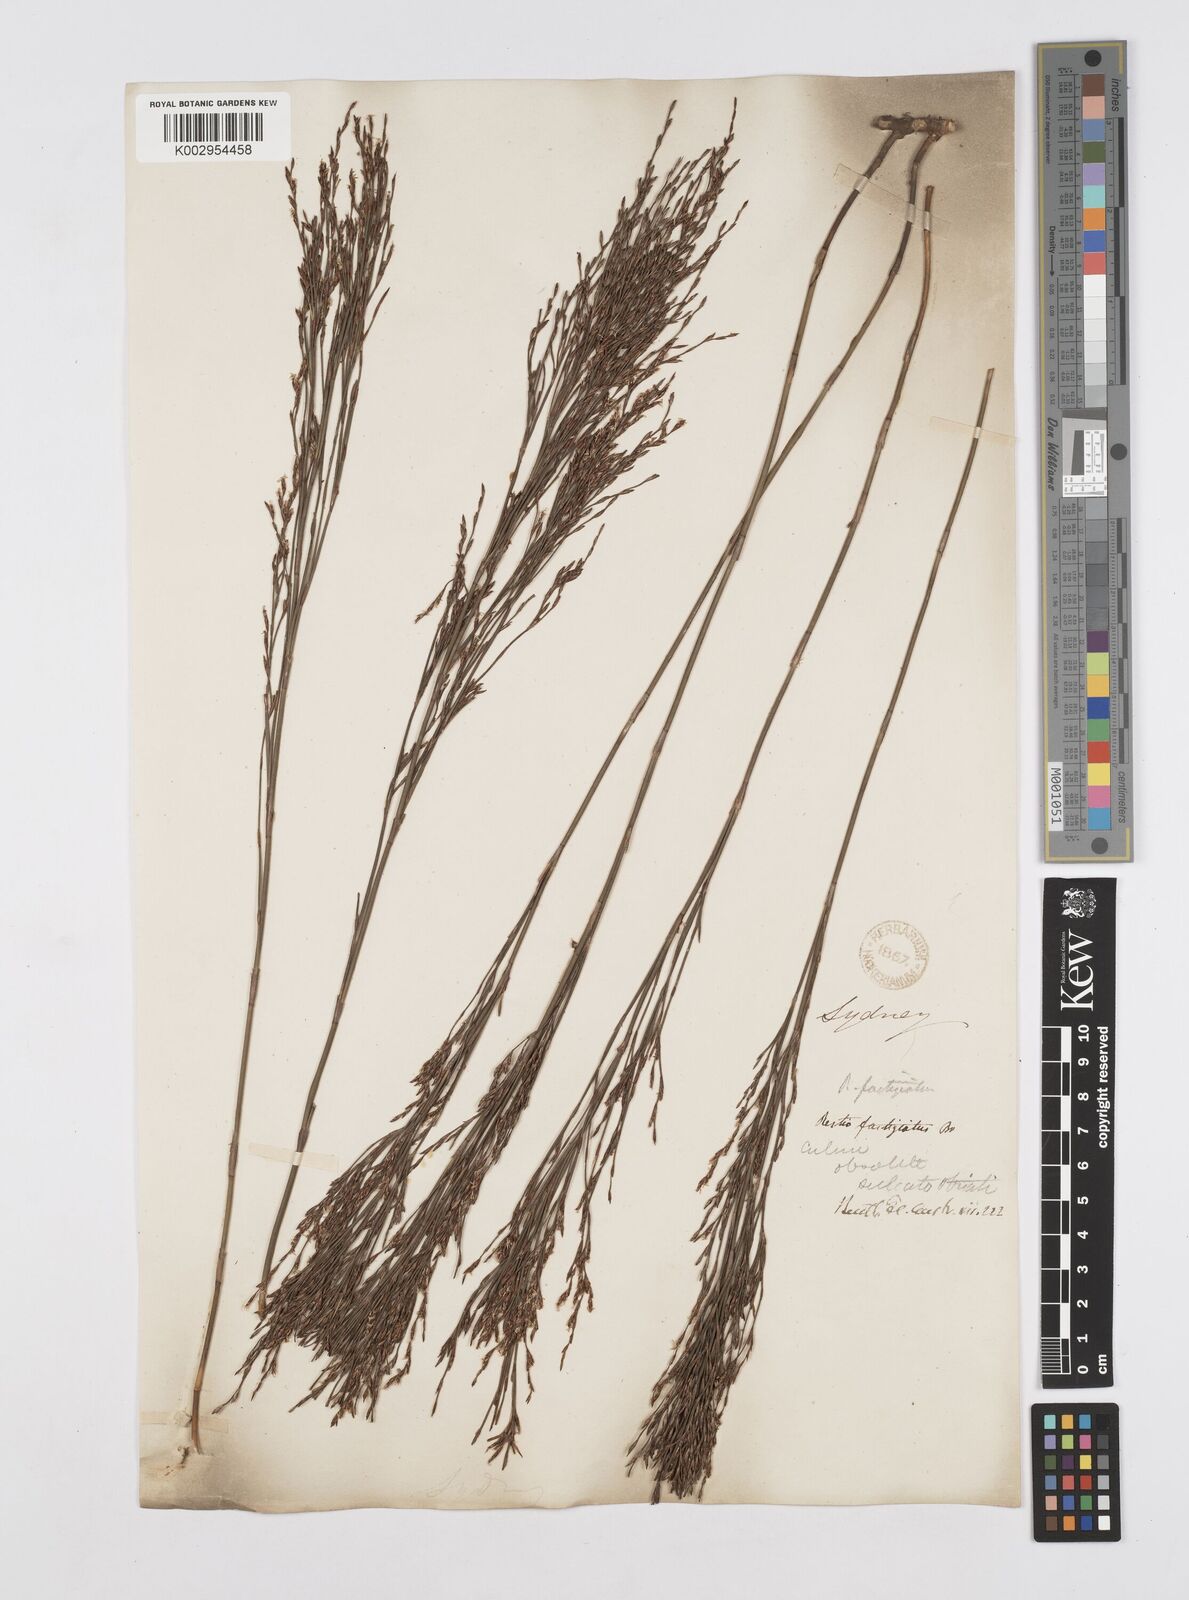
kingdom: Plantae
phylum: Tracheophyta
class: Liliopsida
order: Poales
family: Restionaceae
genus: Chordifex
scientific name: Chordifex fastigiatus
